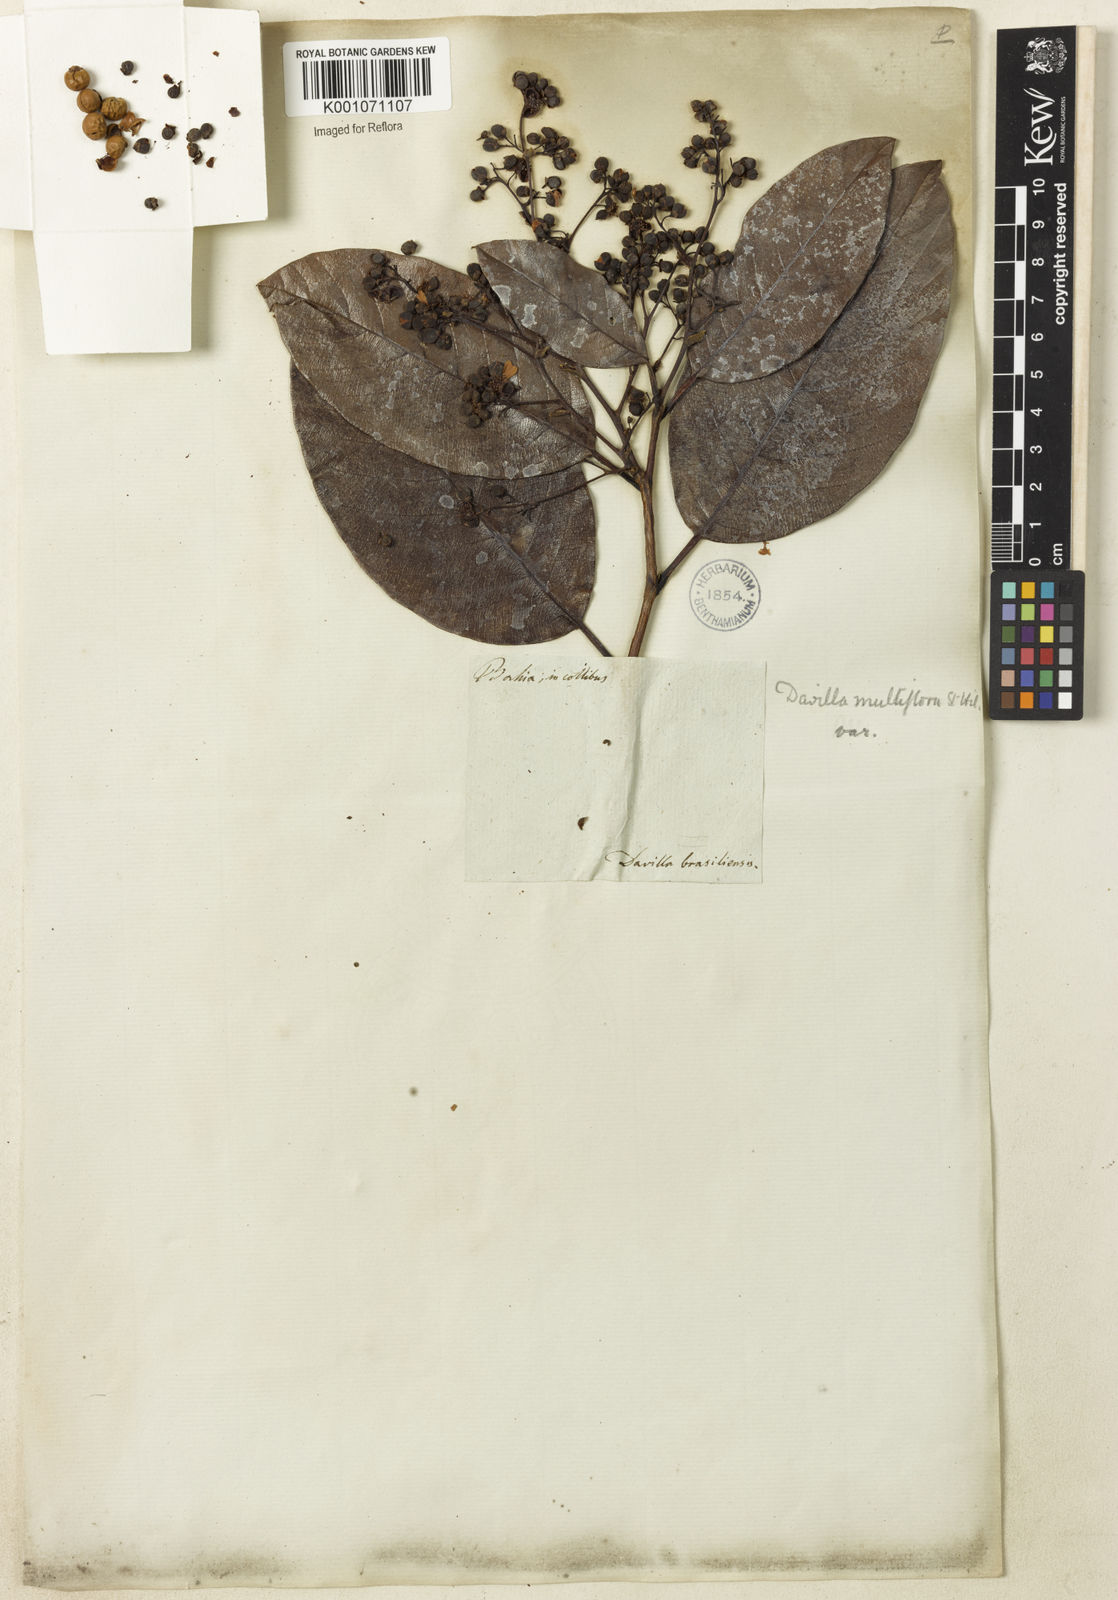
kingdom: Plantae
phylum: Tracheophyta
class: Magnoliopsida
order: Dilleniales
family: Dilleniaceae
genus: Davilla
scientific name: Davilla nitida
